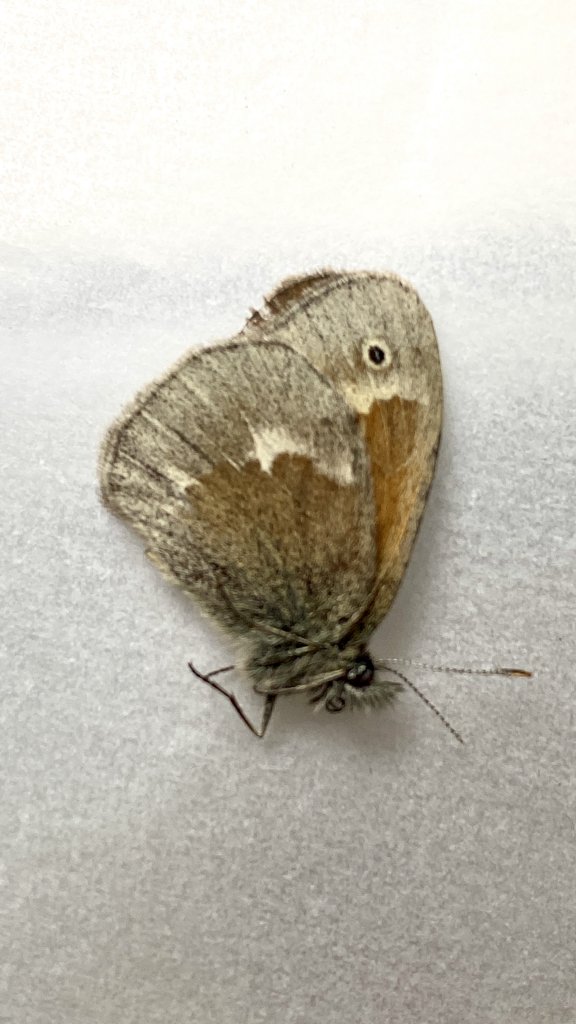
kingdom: Animalia
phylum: Arthropoda
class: Insecta
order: Lepidoptera
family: Nymphalidae
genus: Coenonympha
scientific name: Coenonympha tullia
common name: Large Heath
